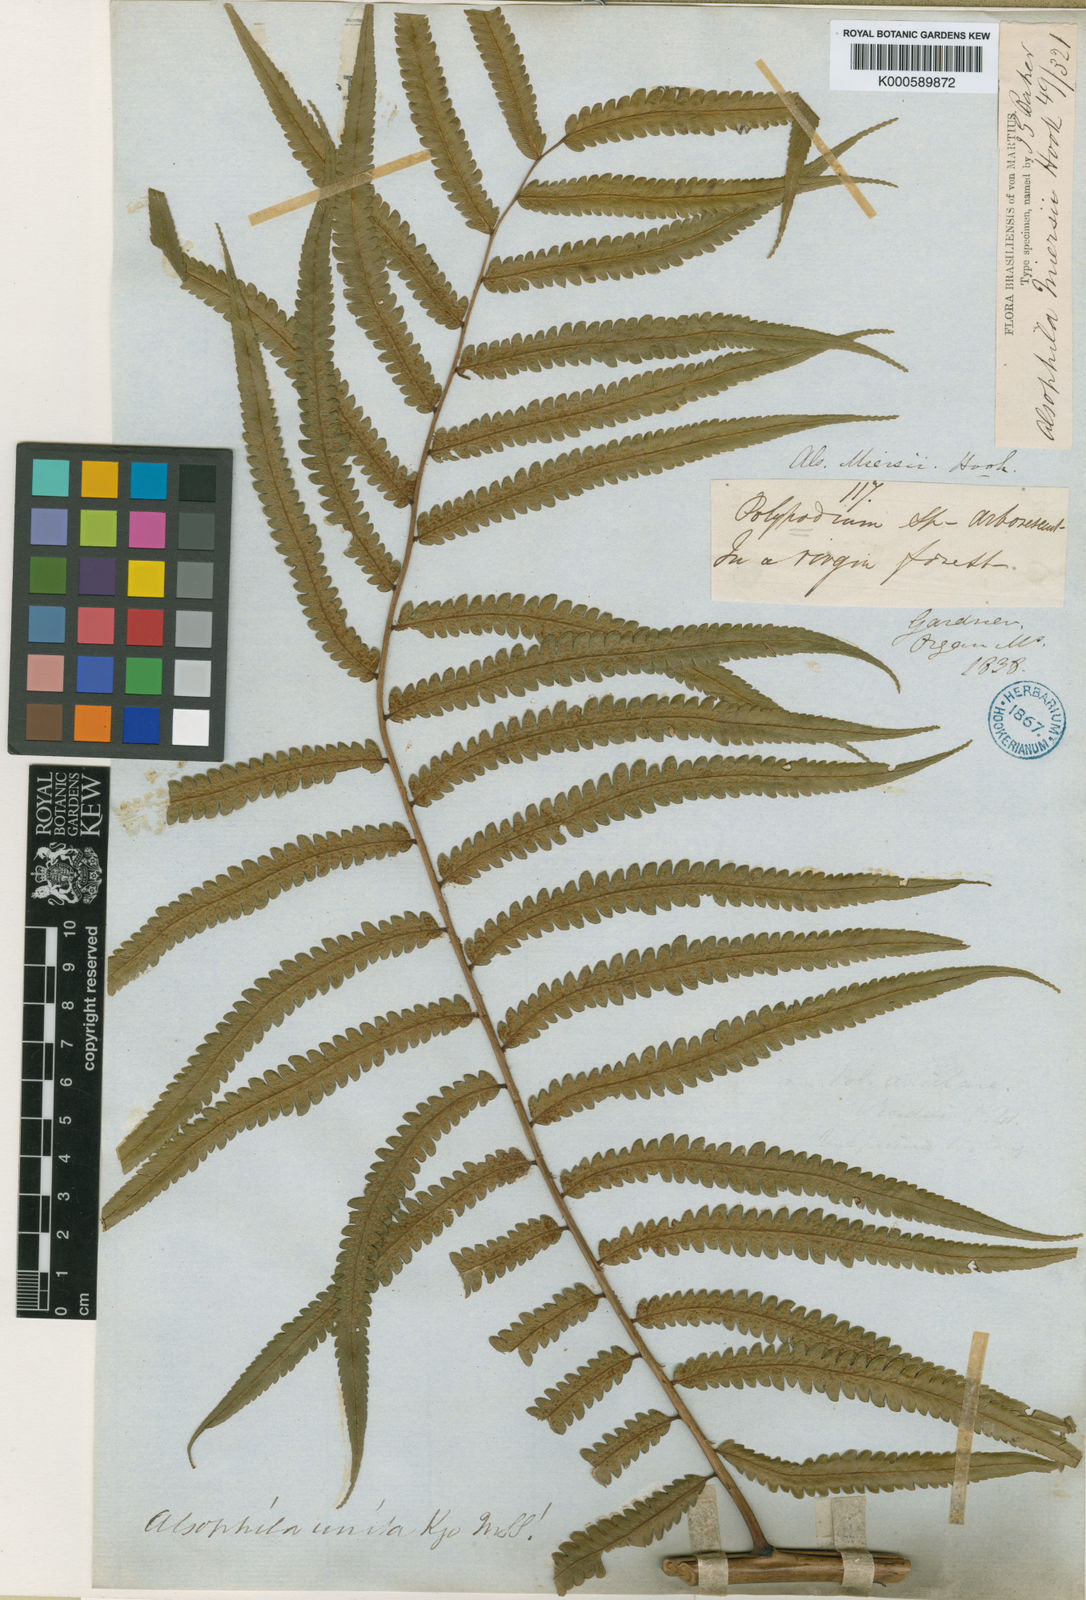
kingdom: Plantae
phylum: Tracheophyta
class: Polypodiopsida
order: Cyatheales
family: Cyatheaceae
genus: Cyathea
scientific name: Cyathea miersii
